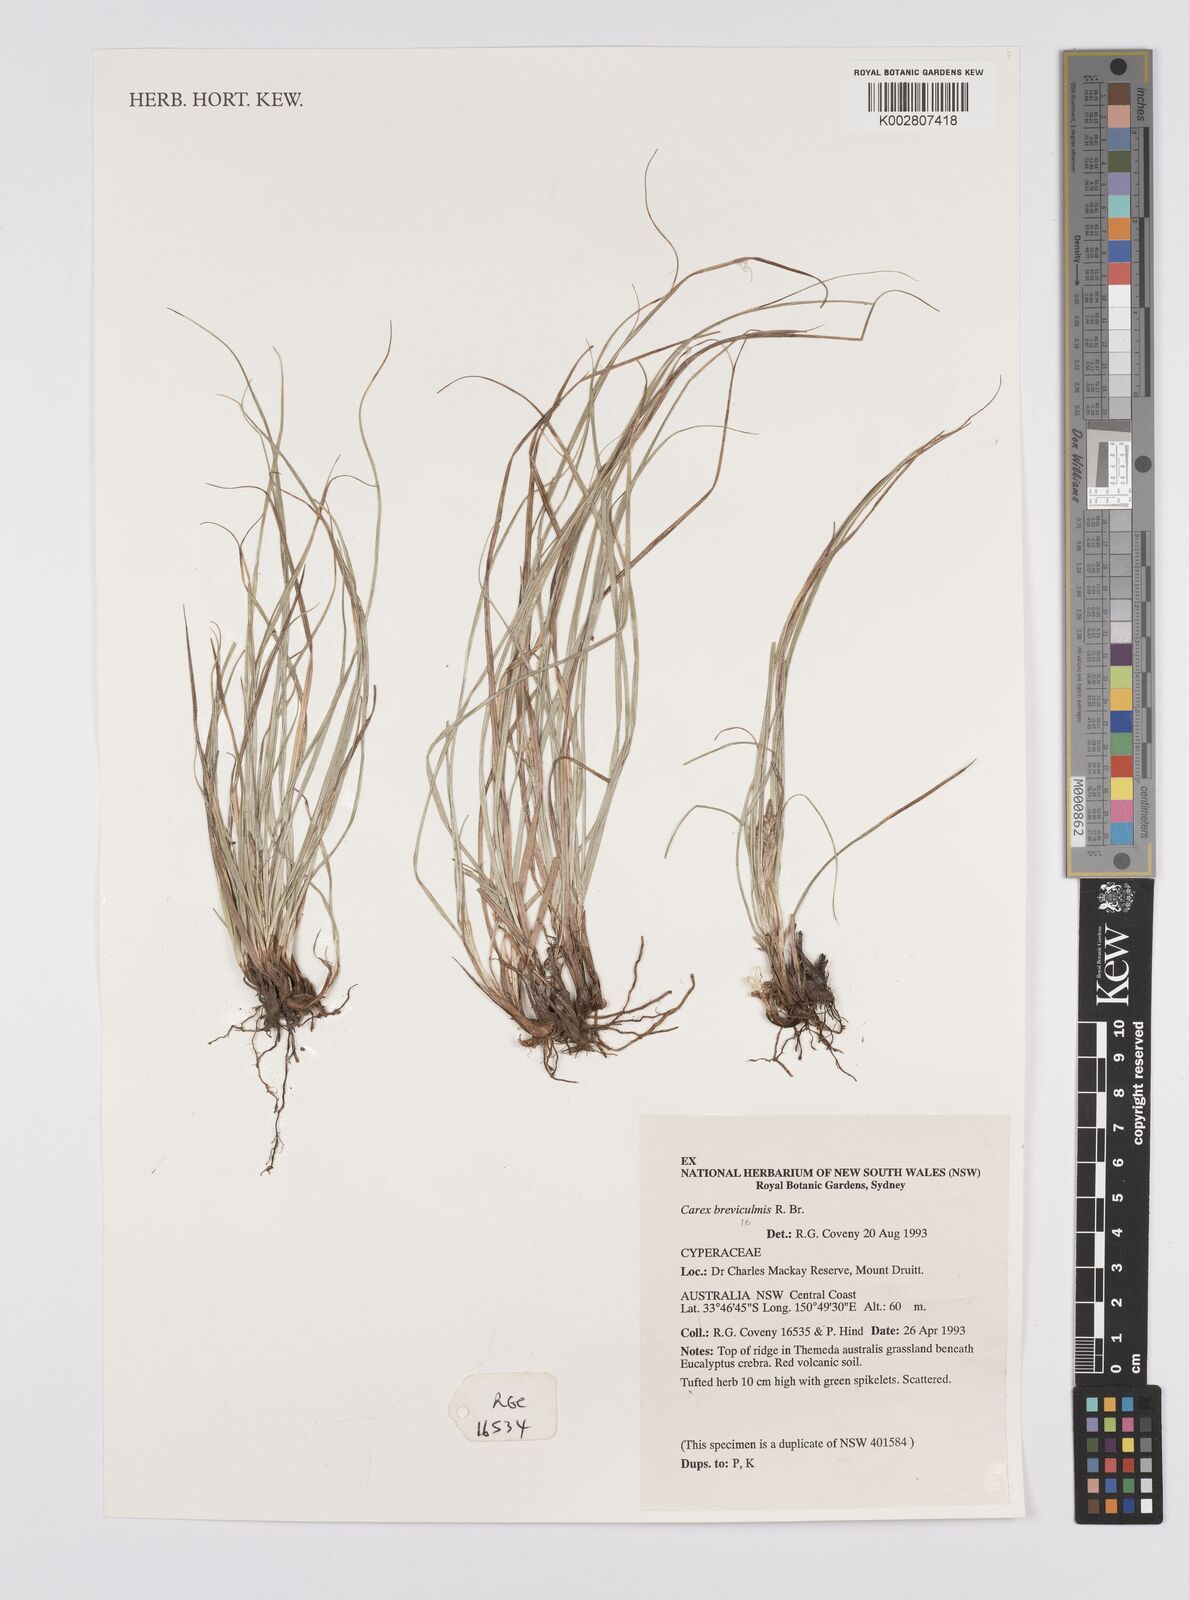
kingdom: Plantae
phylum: Tracheophyta
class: Liliopsida
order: Poales
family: Cyperaceae
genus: Carex
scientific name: Carex breviculmis
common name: Asian shortstem sedge
